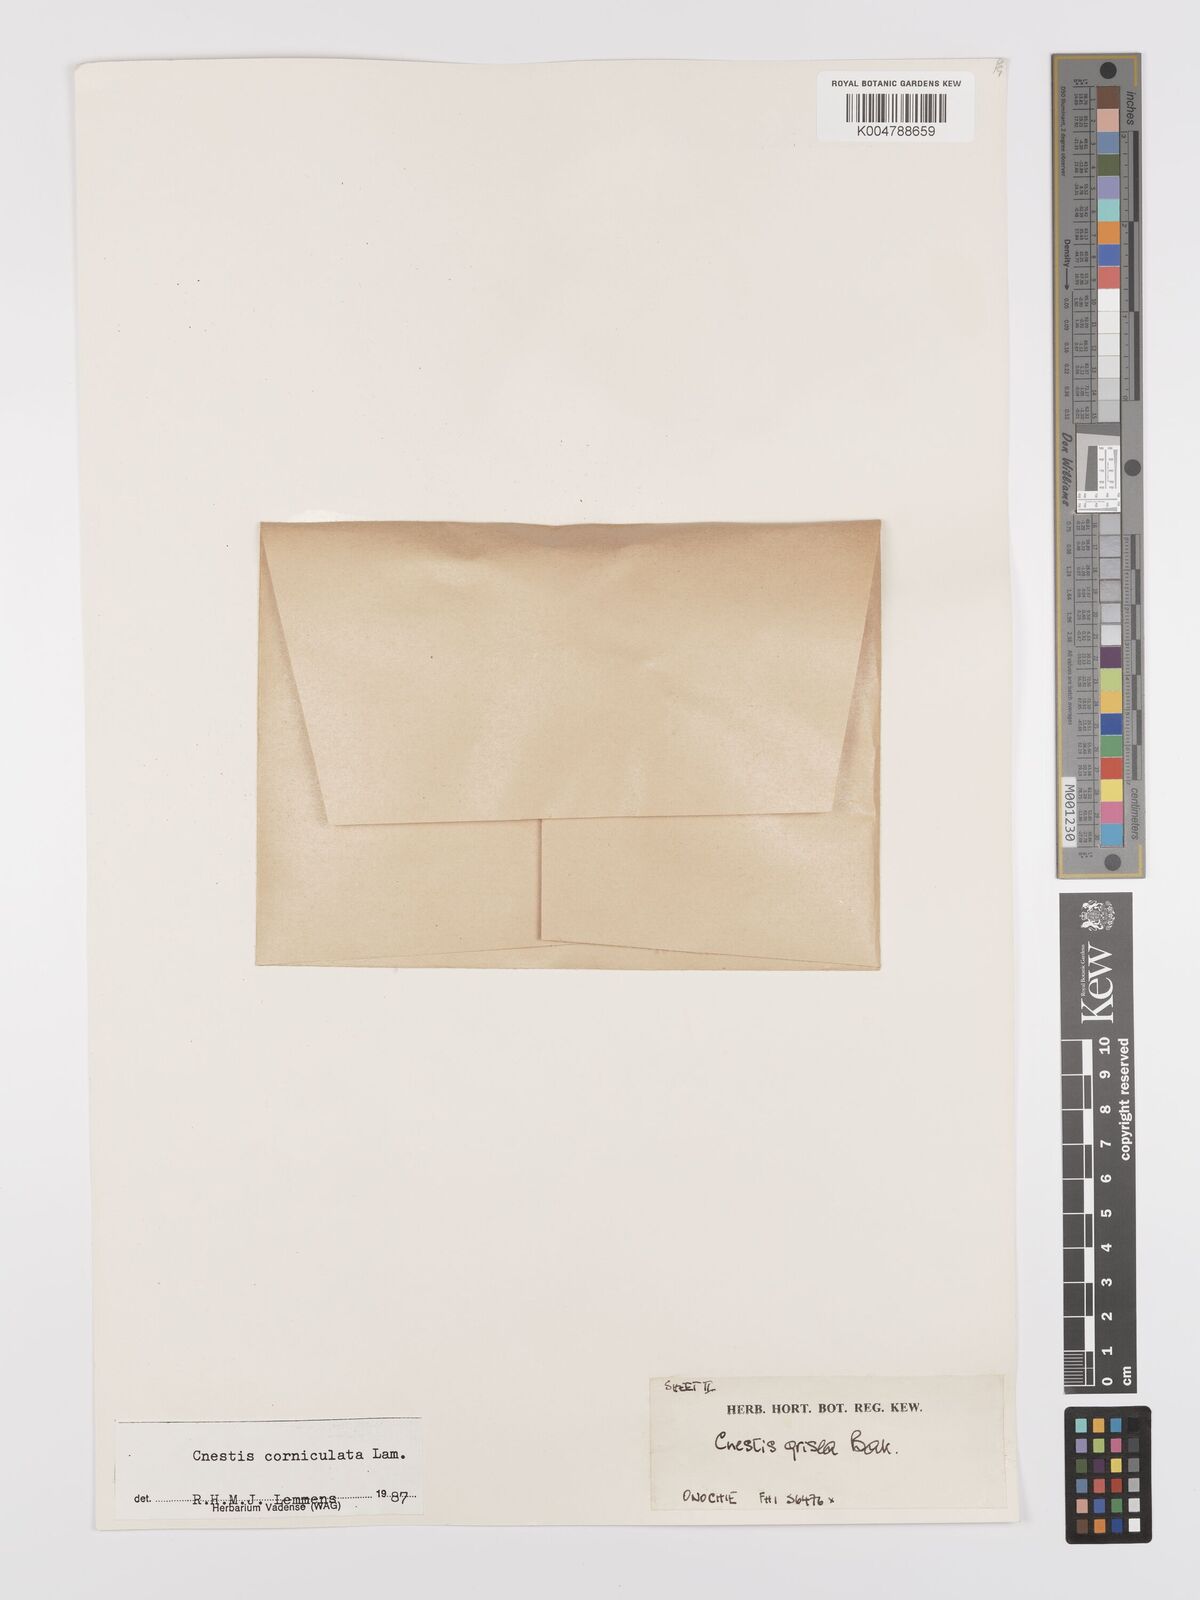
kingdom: Plantae
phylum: Tracheophyta
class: Magnoliopsida
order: Oxalidales
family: Connaraceae
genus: Cnestis
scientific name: Cnestis corniculata
